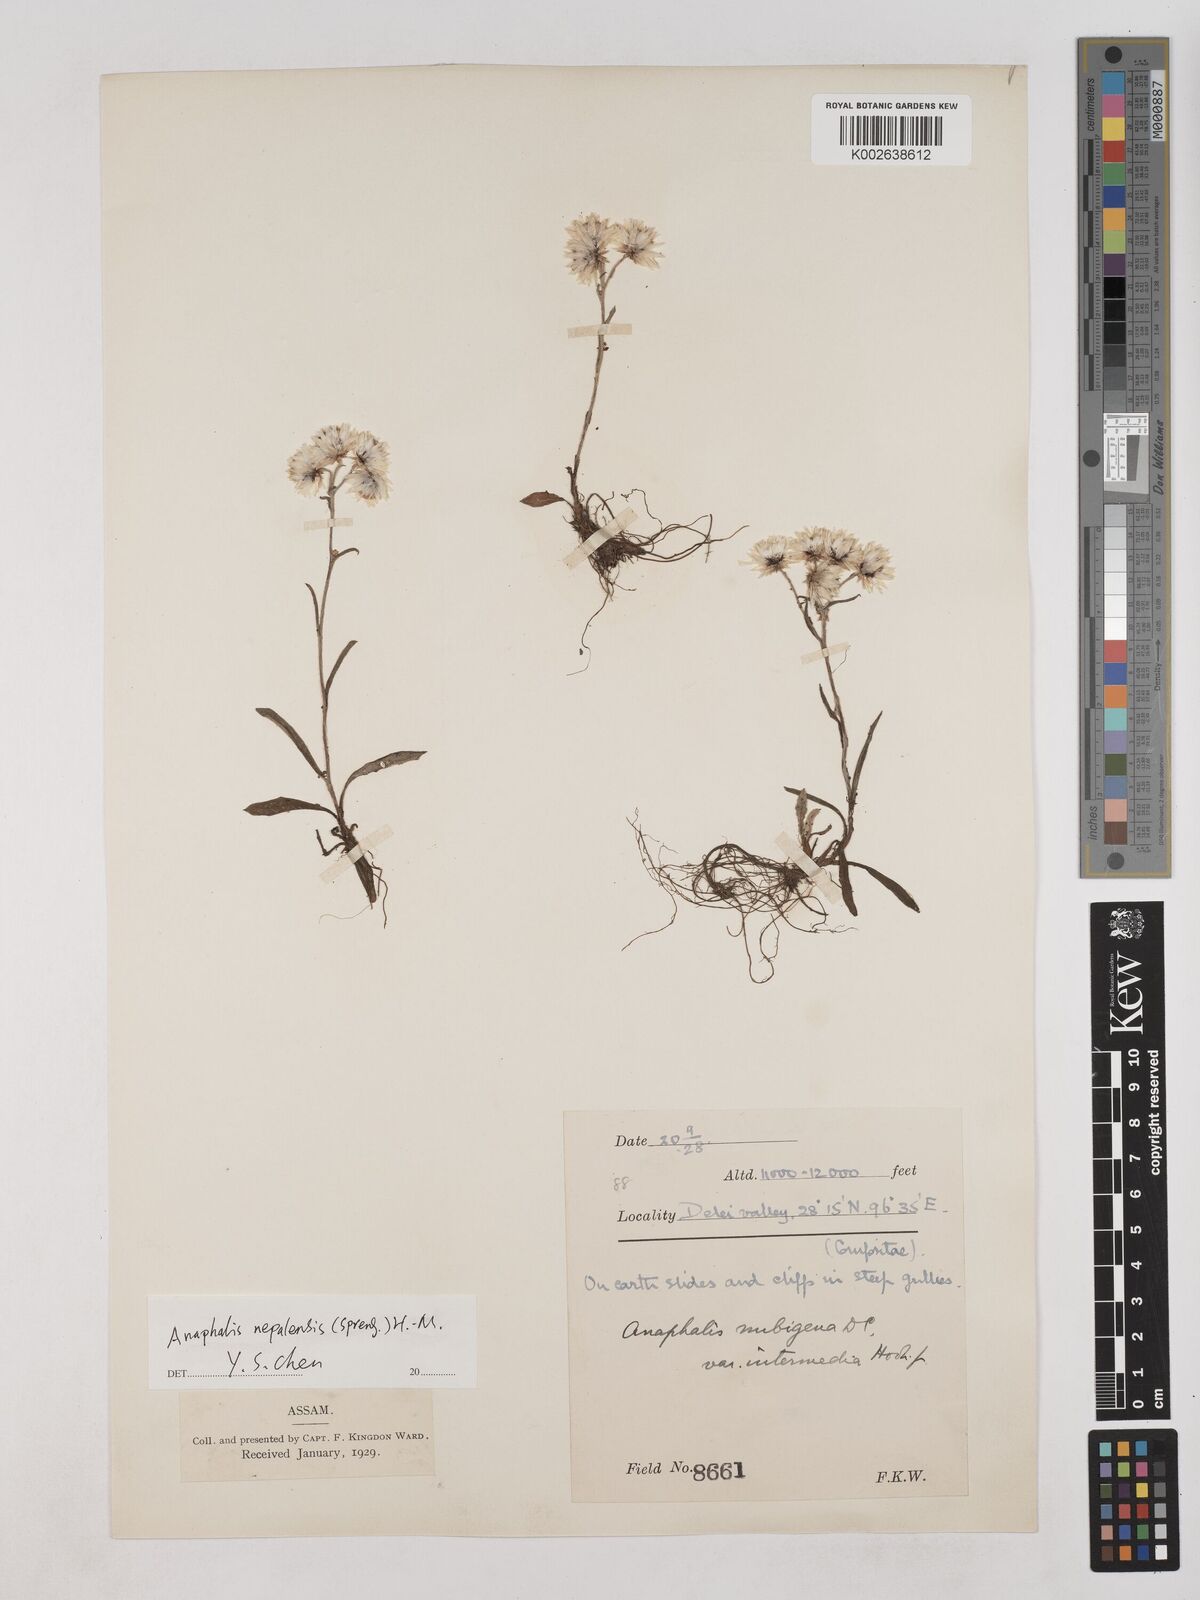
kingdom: Plantae
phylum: Tracheophyta
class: Magnoliopsida
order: Asterales
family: Asteraceae
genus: Anaphalis
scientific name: Anaphalis nepalensis
